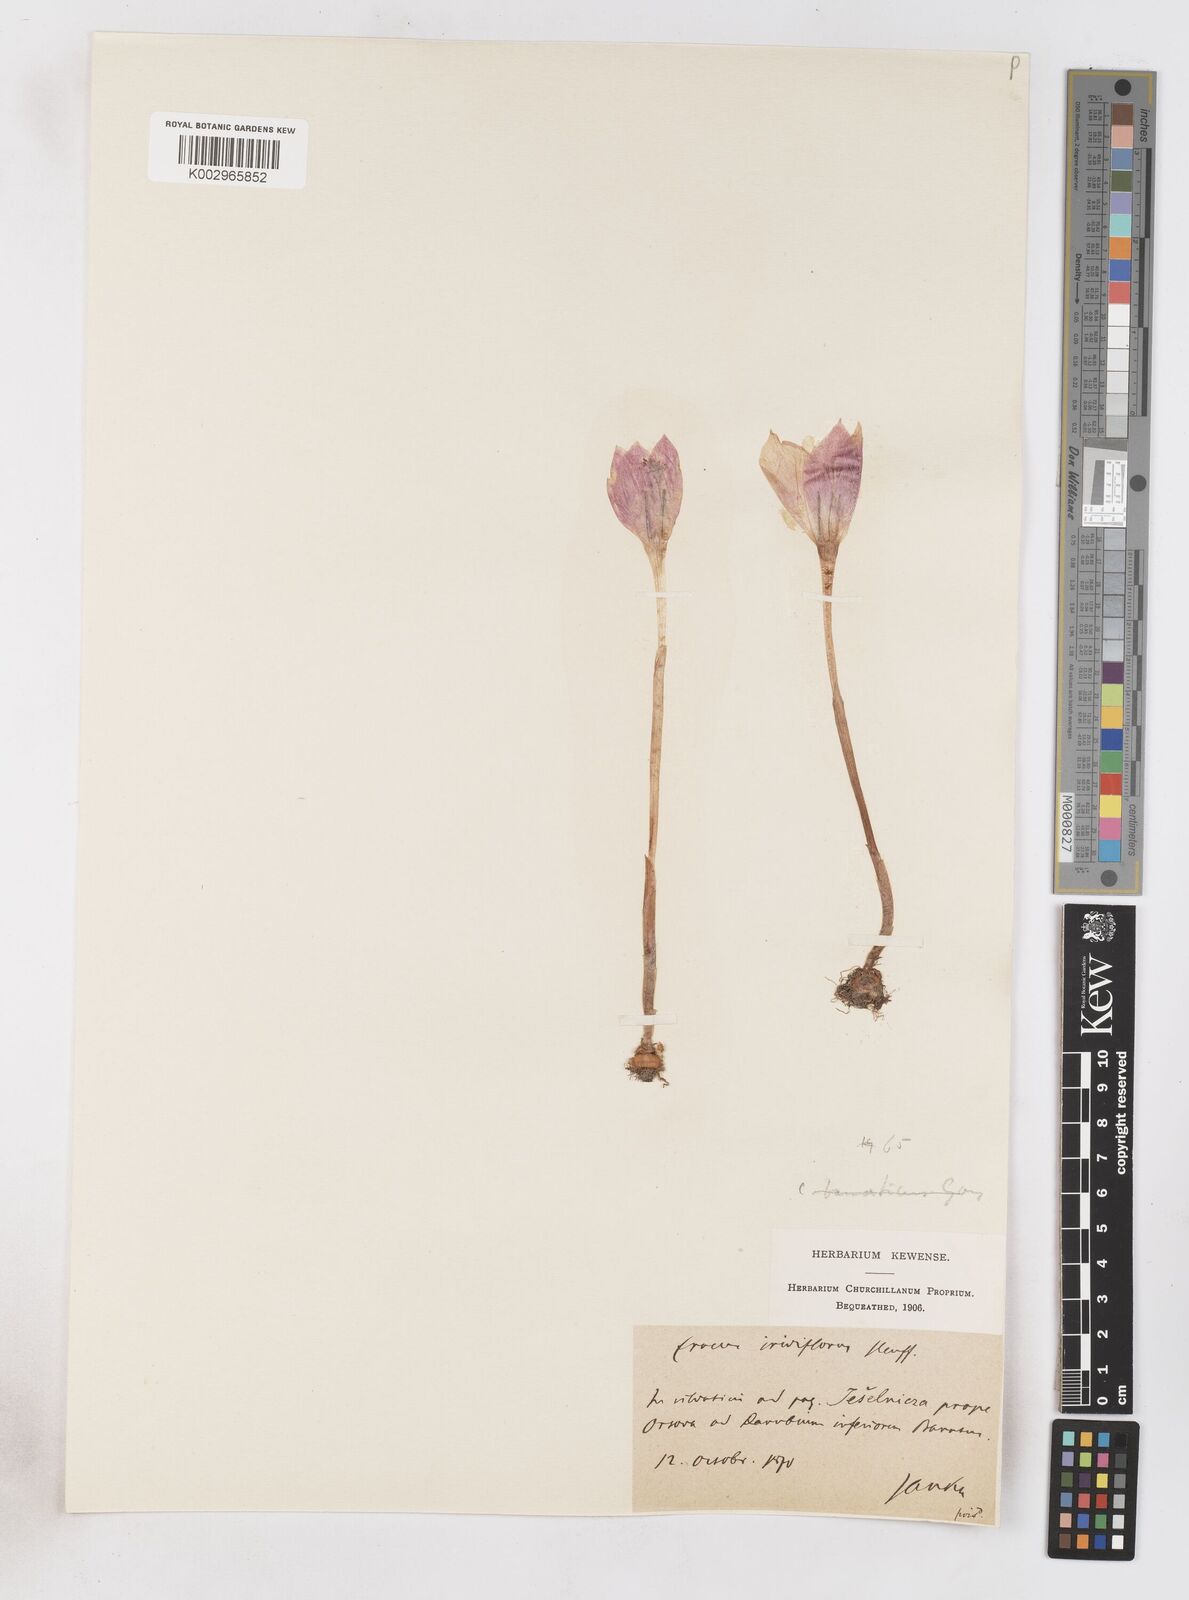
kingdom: Plantae
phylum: Tracheophyta
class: Liliopsida
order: Asparagales
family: Iridaceae
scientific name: Iridaceae
